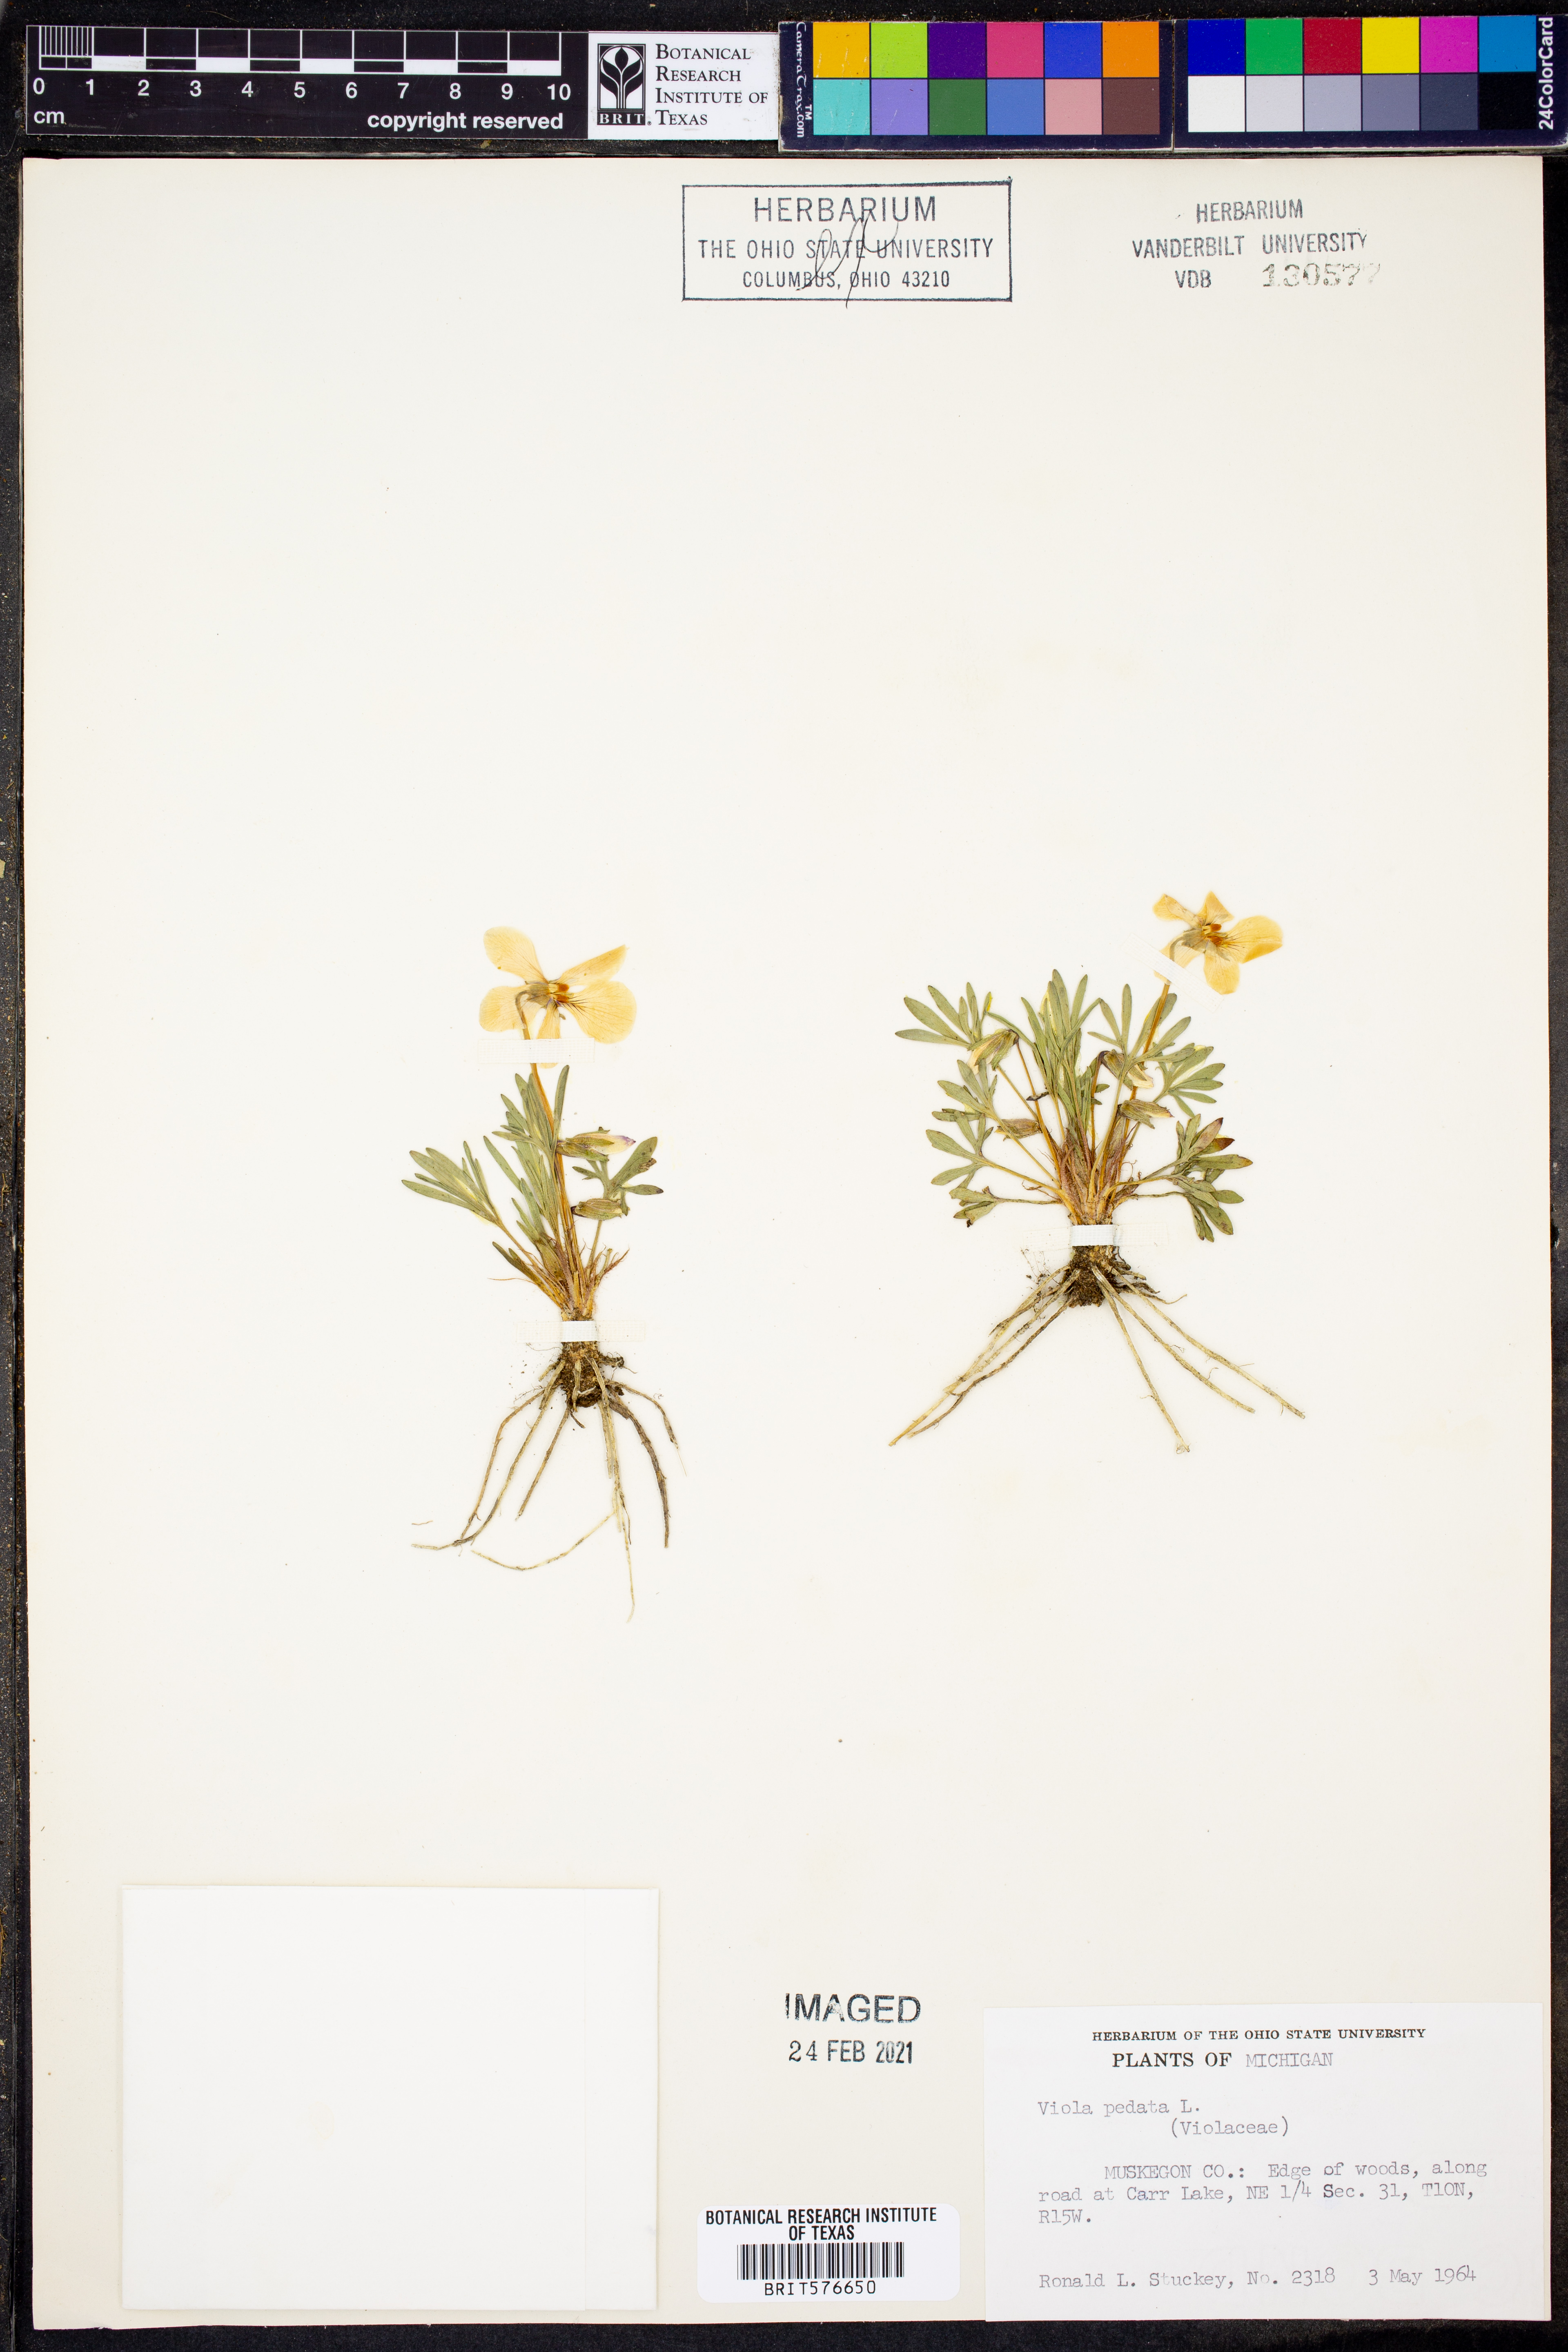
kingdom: Plantae
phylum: Tracheophyta
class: Magnoliopsida
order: Malpighiales
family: Violaceae
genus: Viola
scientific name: Viola pedata
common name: Pansy violet
